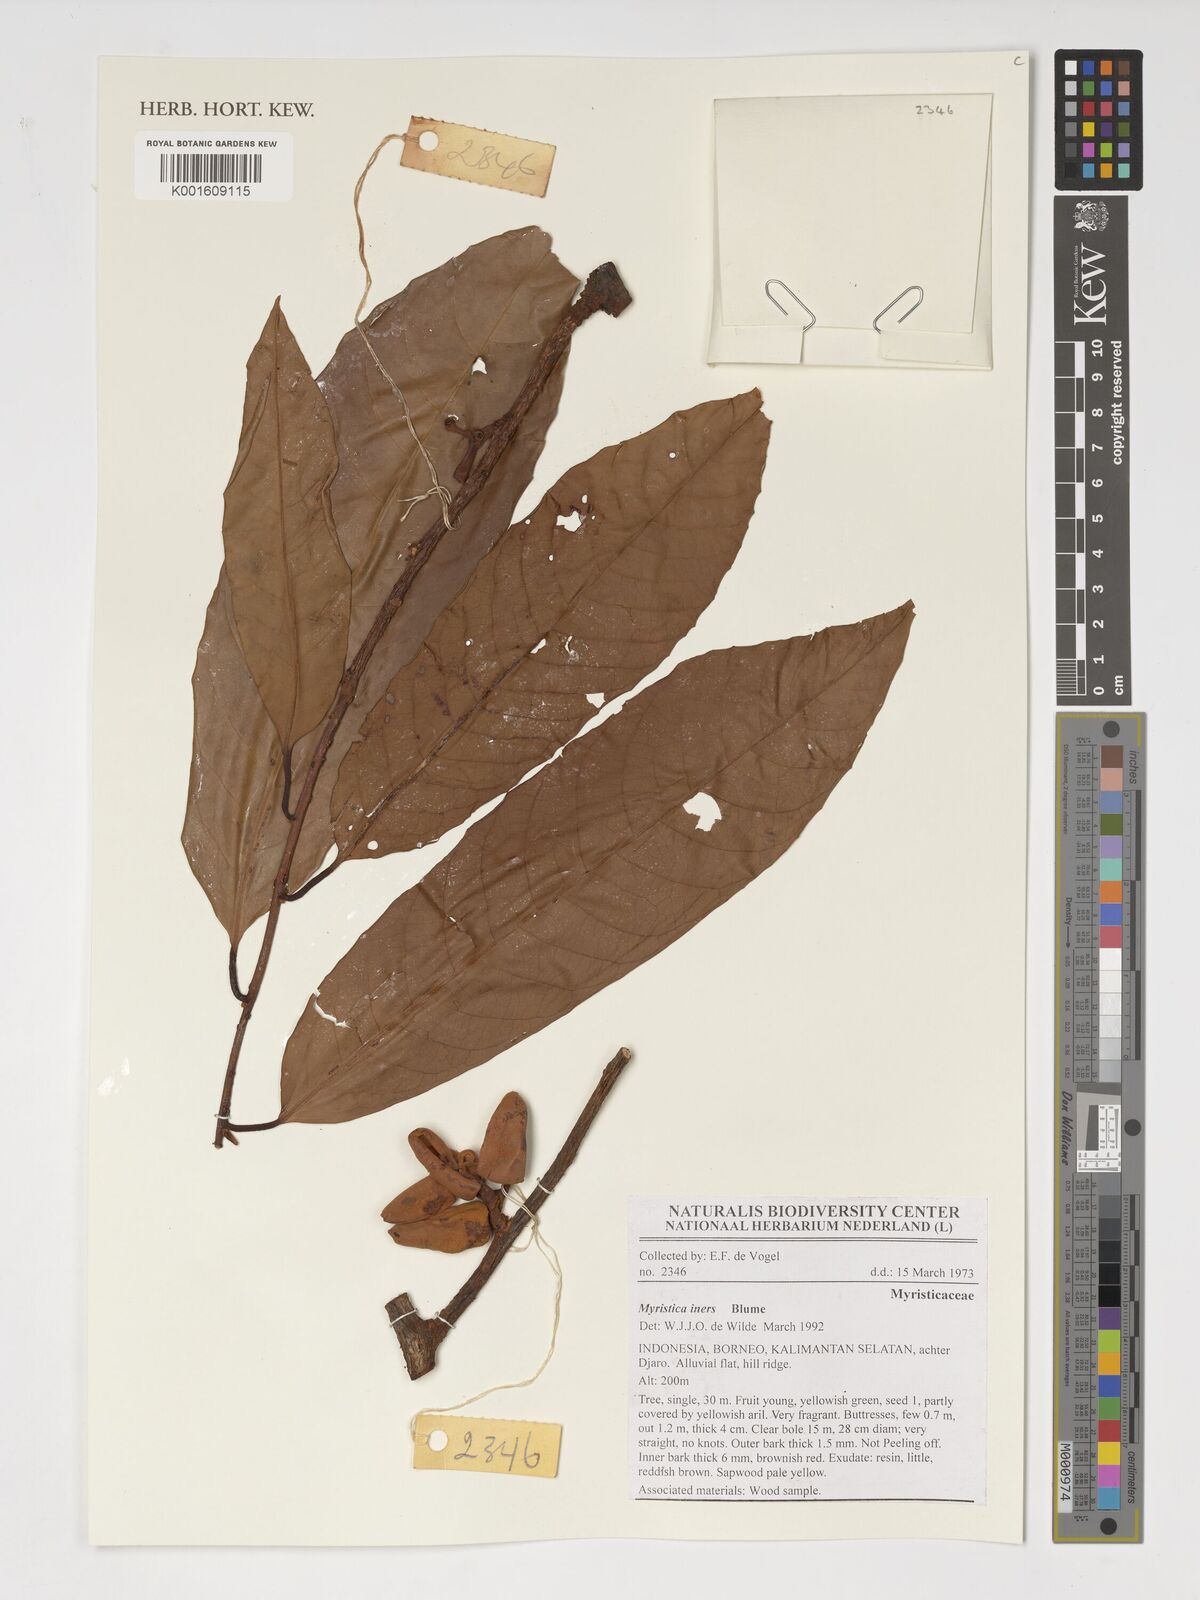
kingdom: Plantae
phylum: Tracheophyta
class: Magnoliopsida
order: Magnoliales
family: Myristicaceae
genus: Myristica
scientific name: Myristica iners
